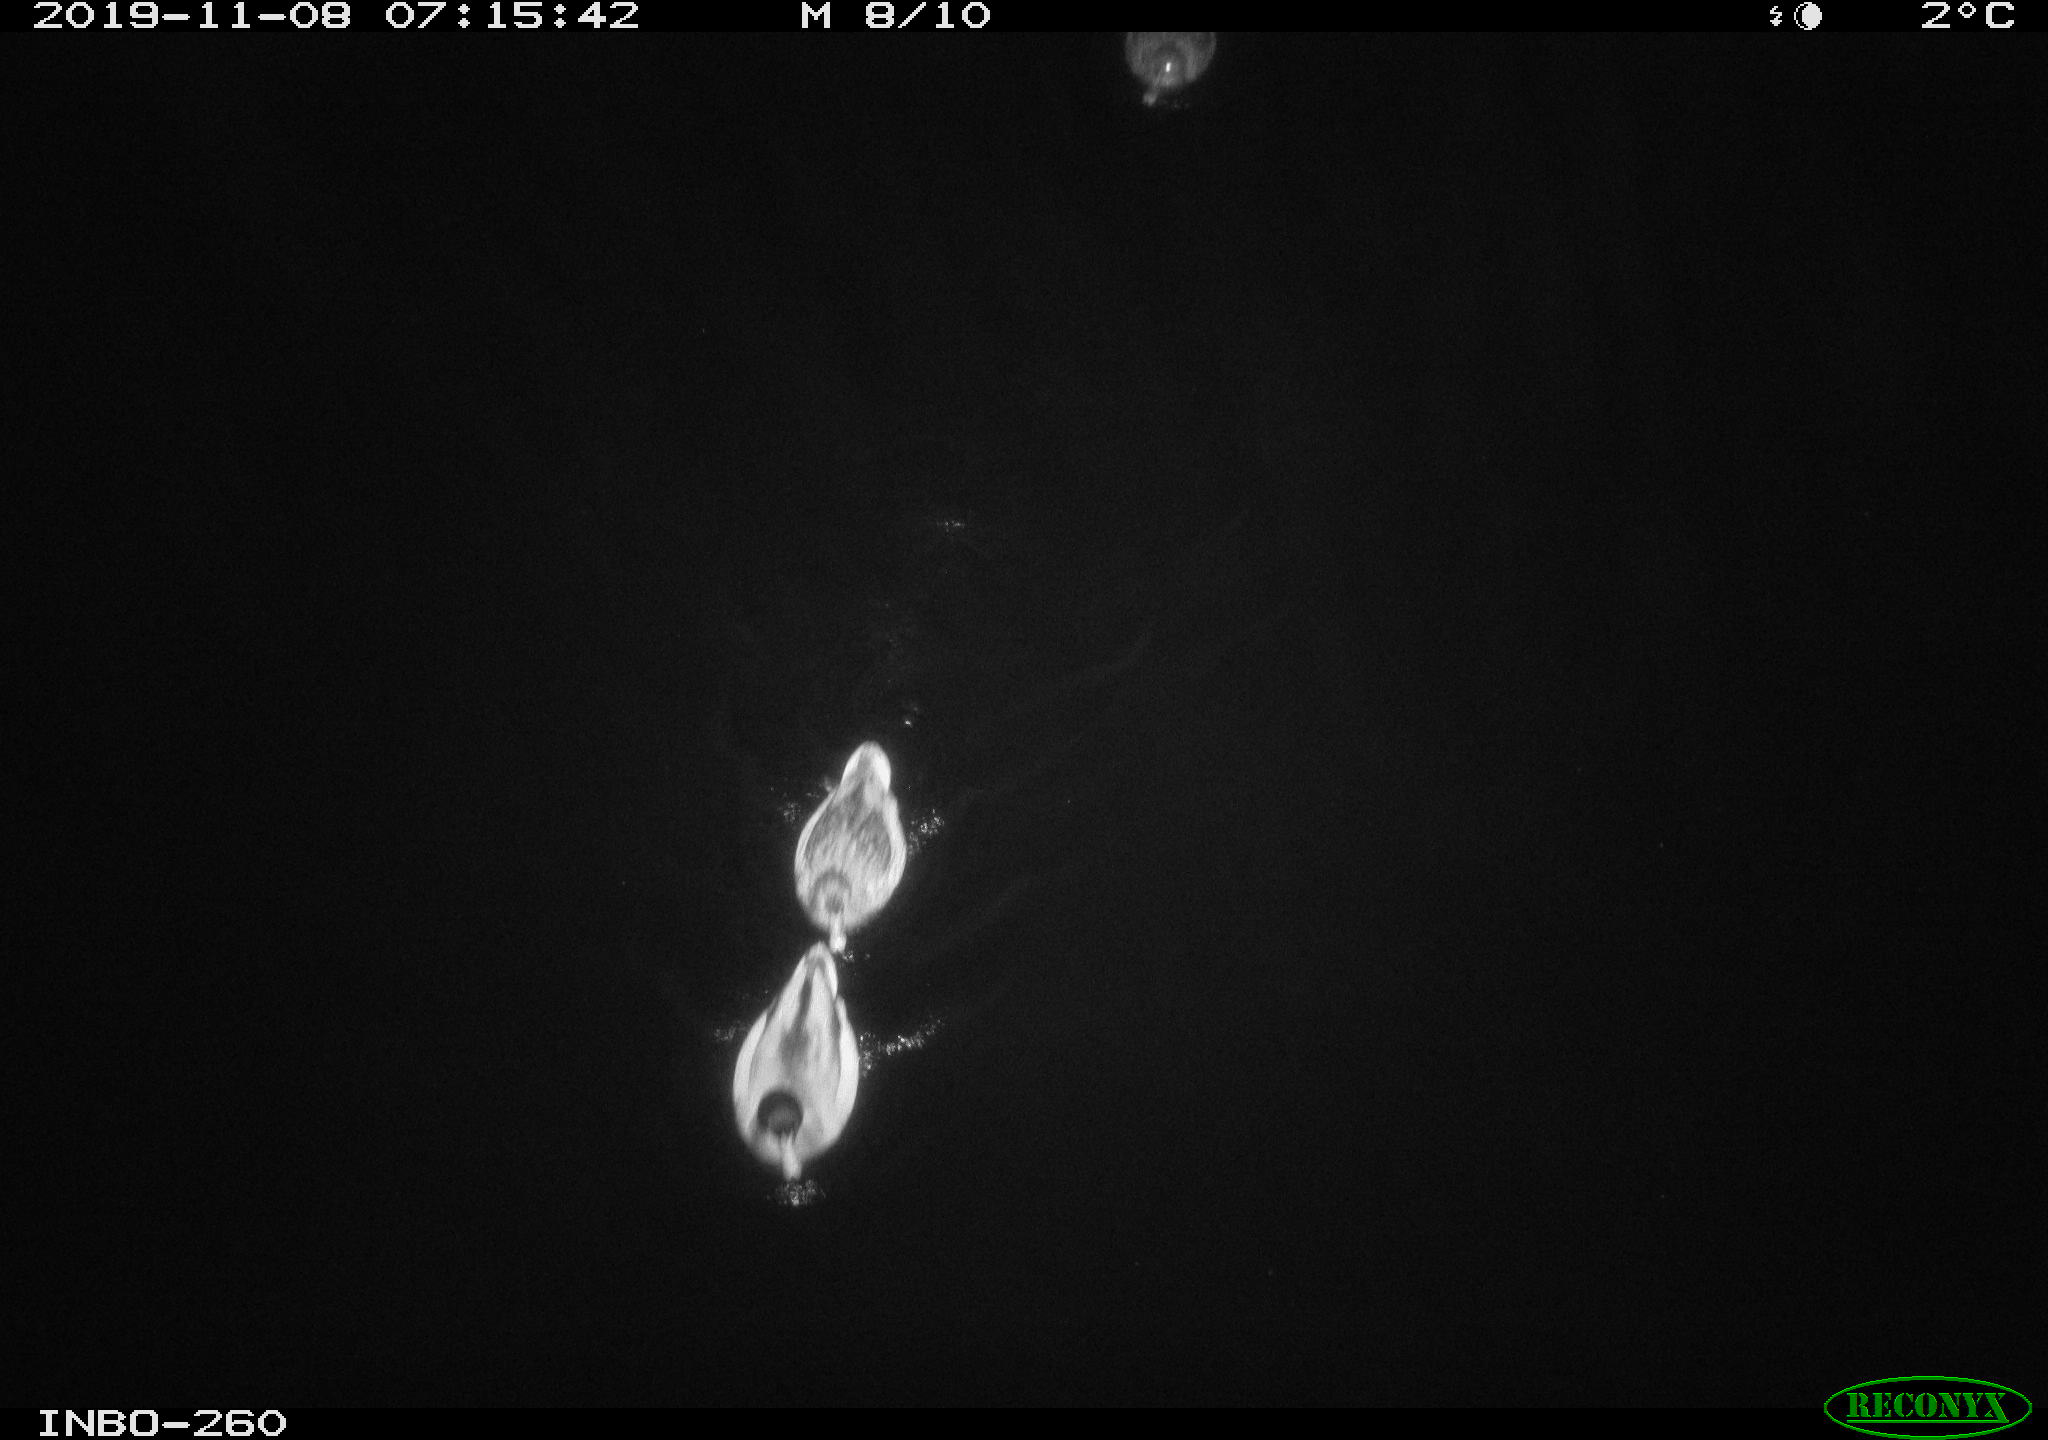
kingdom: Animalia
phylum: Chordata
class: Aves
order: Anseriformes
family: Anatidae
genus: Anas
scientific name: Anas platyrhynchos
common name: Mallard
